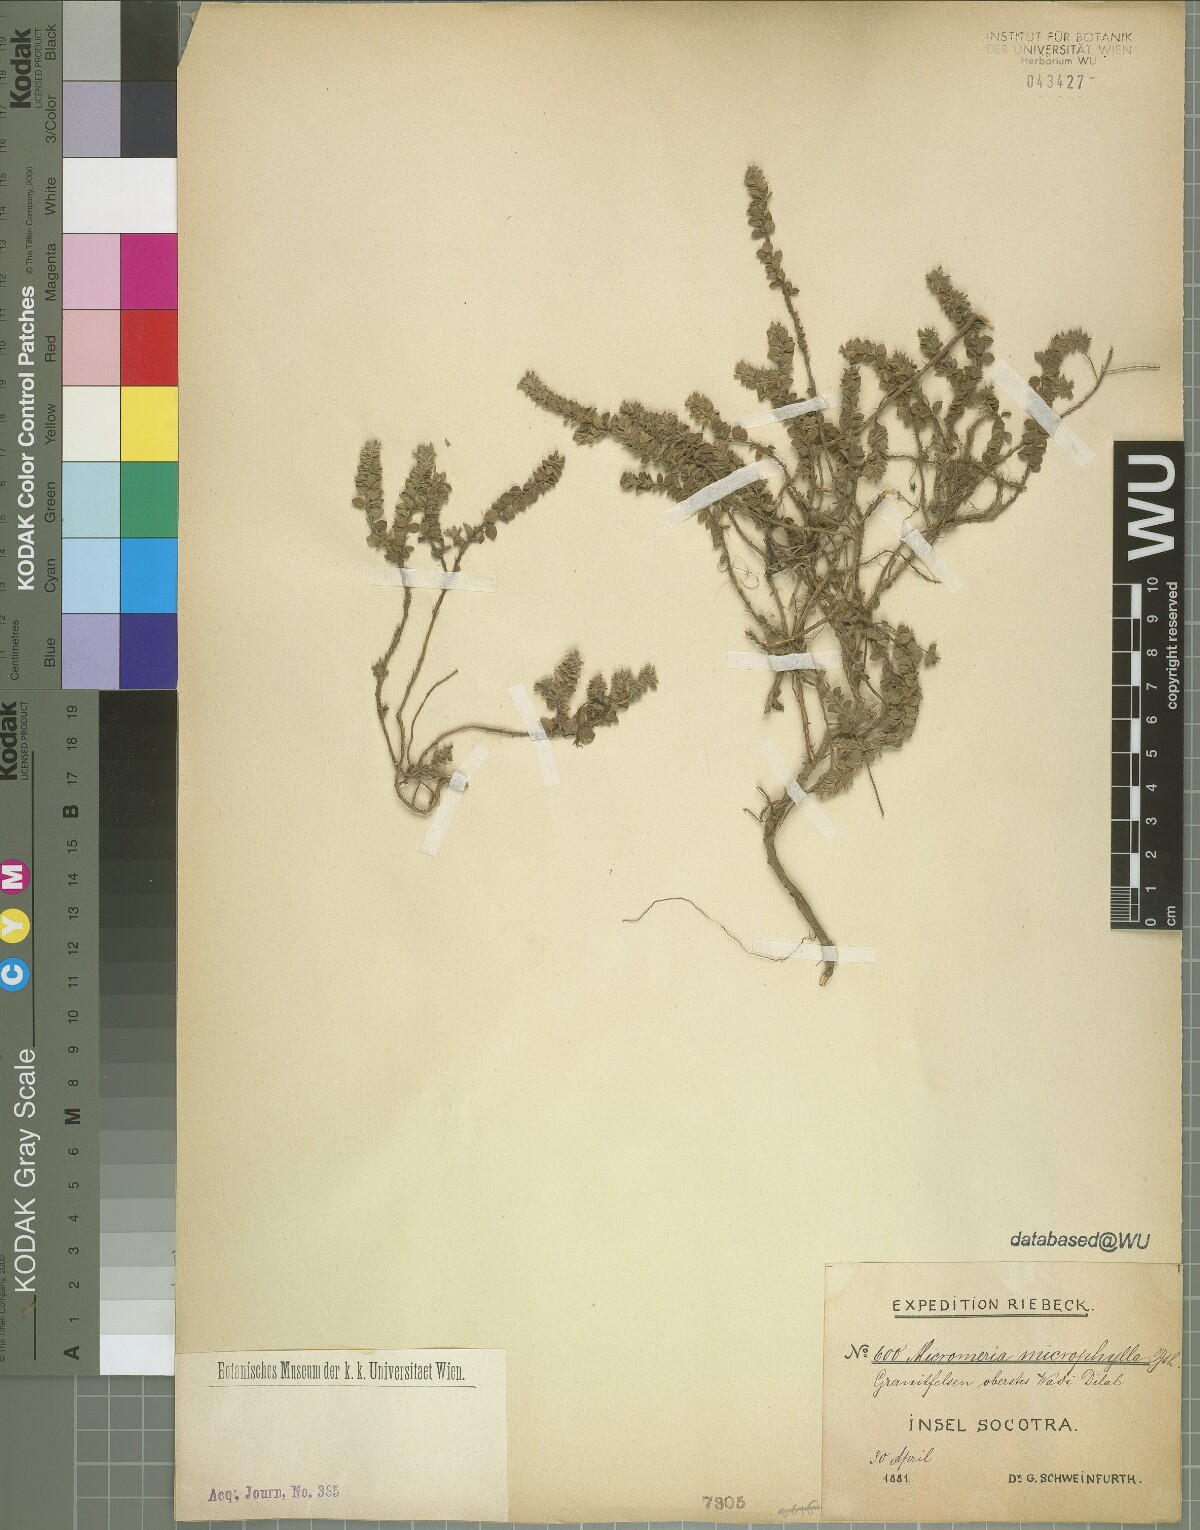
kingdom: Plantae
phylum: Tracheophyta
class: Magnoliopsida
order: Lamiales
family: Lamiaceae
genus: Micromeria
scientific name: Micromeria imbricata
